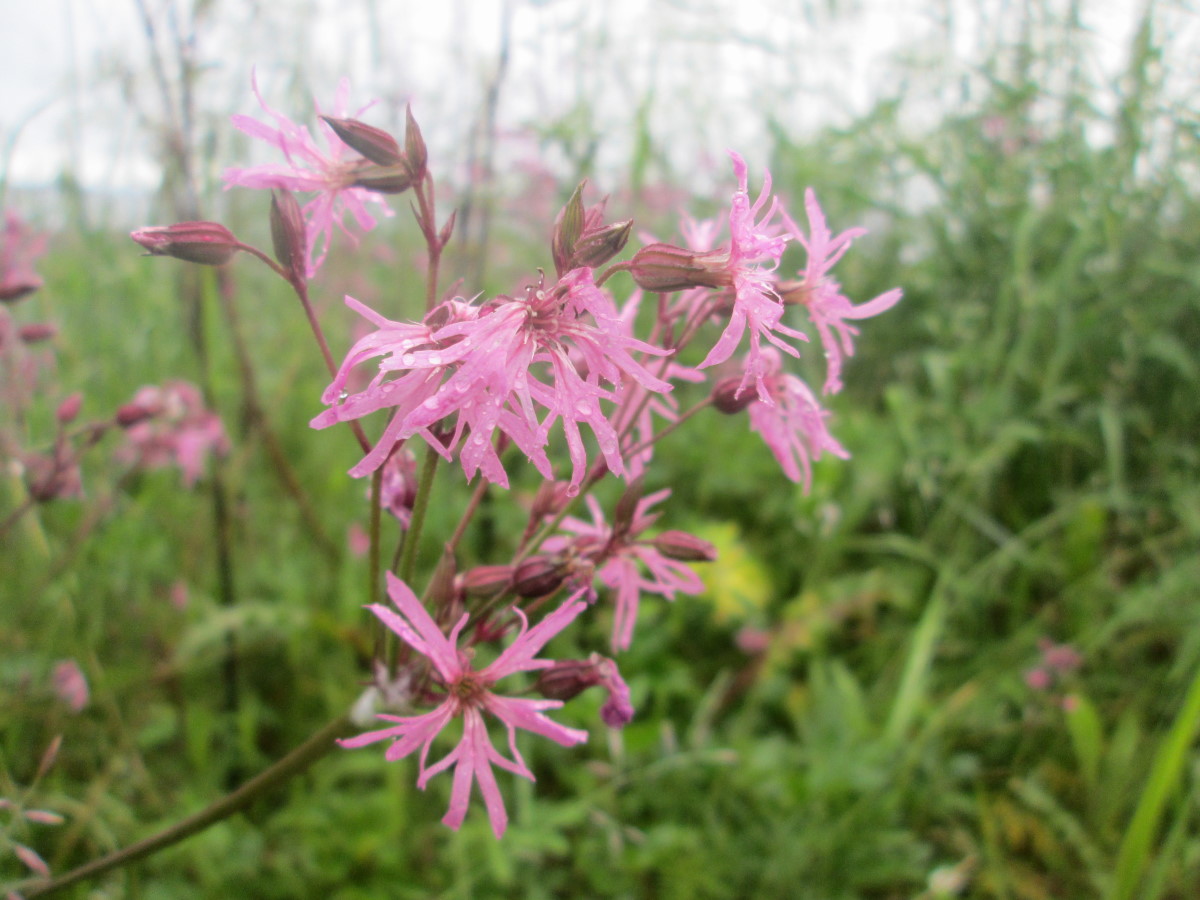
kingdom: Plantae
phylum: Tracheophyta
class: Magnoliopsida
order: Caryophyllales
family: Caryophyllaceae
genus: Silene
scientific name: Silene flos-cuculi
